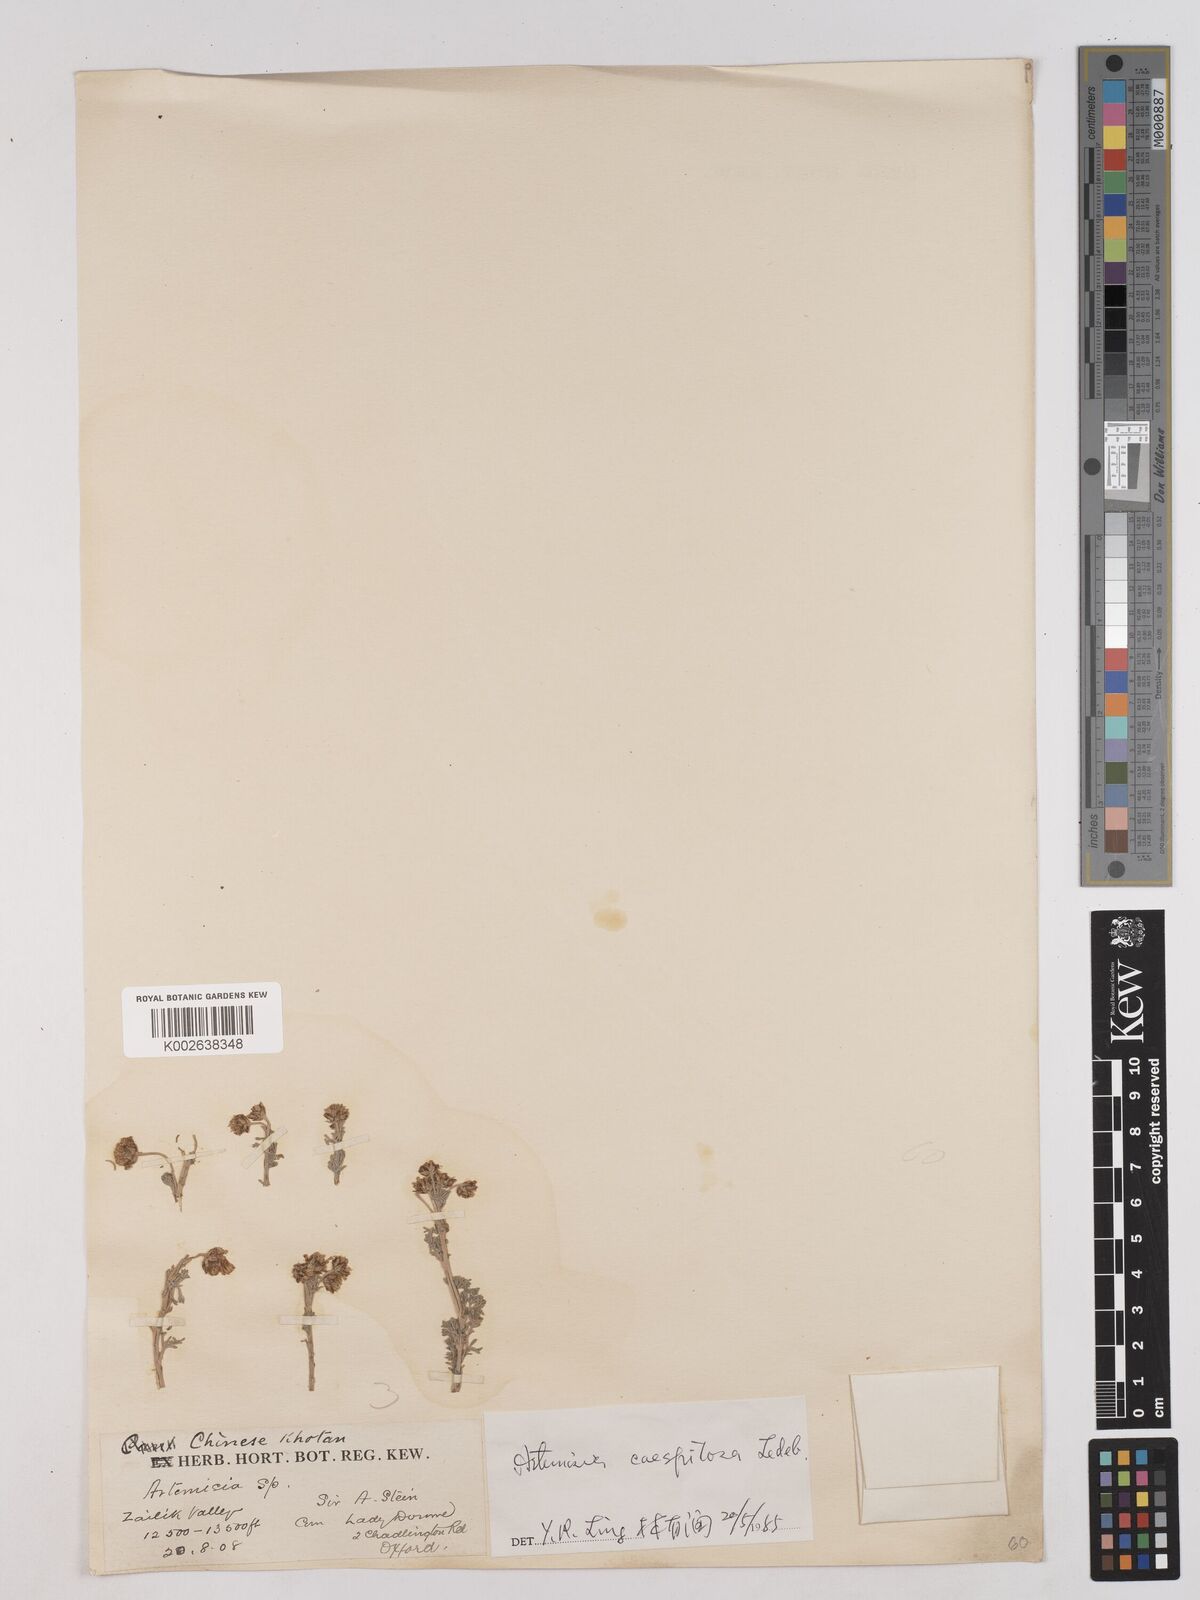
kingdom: Plantae
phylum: Tracheophyta
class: Magnoliopsida
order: Asterales
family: Asteraceae
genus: Artemisia
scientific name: Artemisia caespitosa
